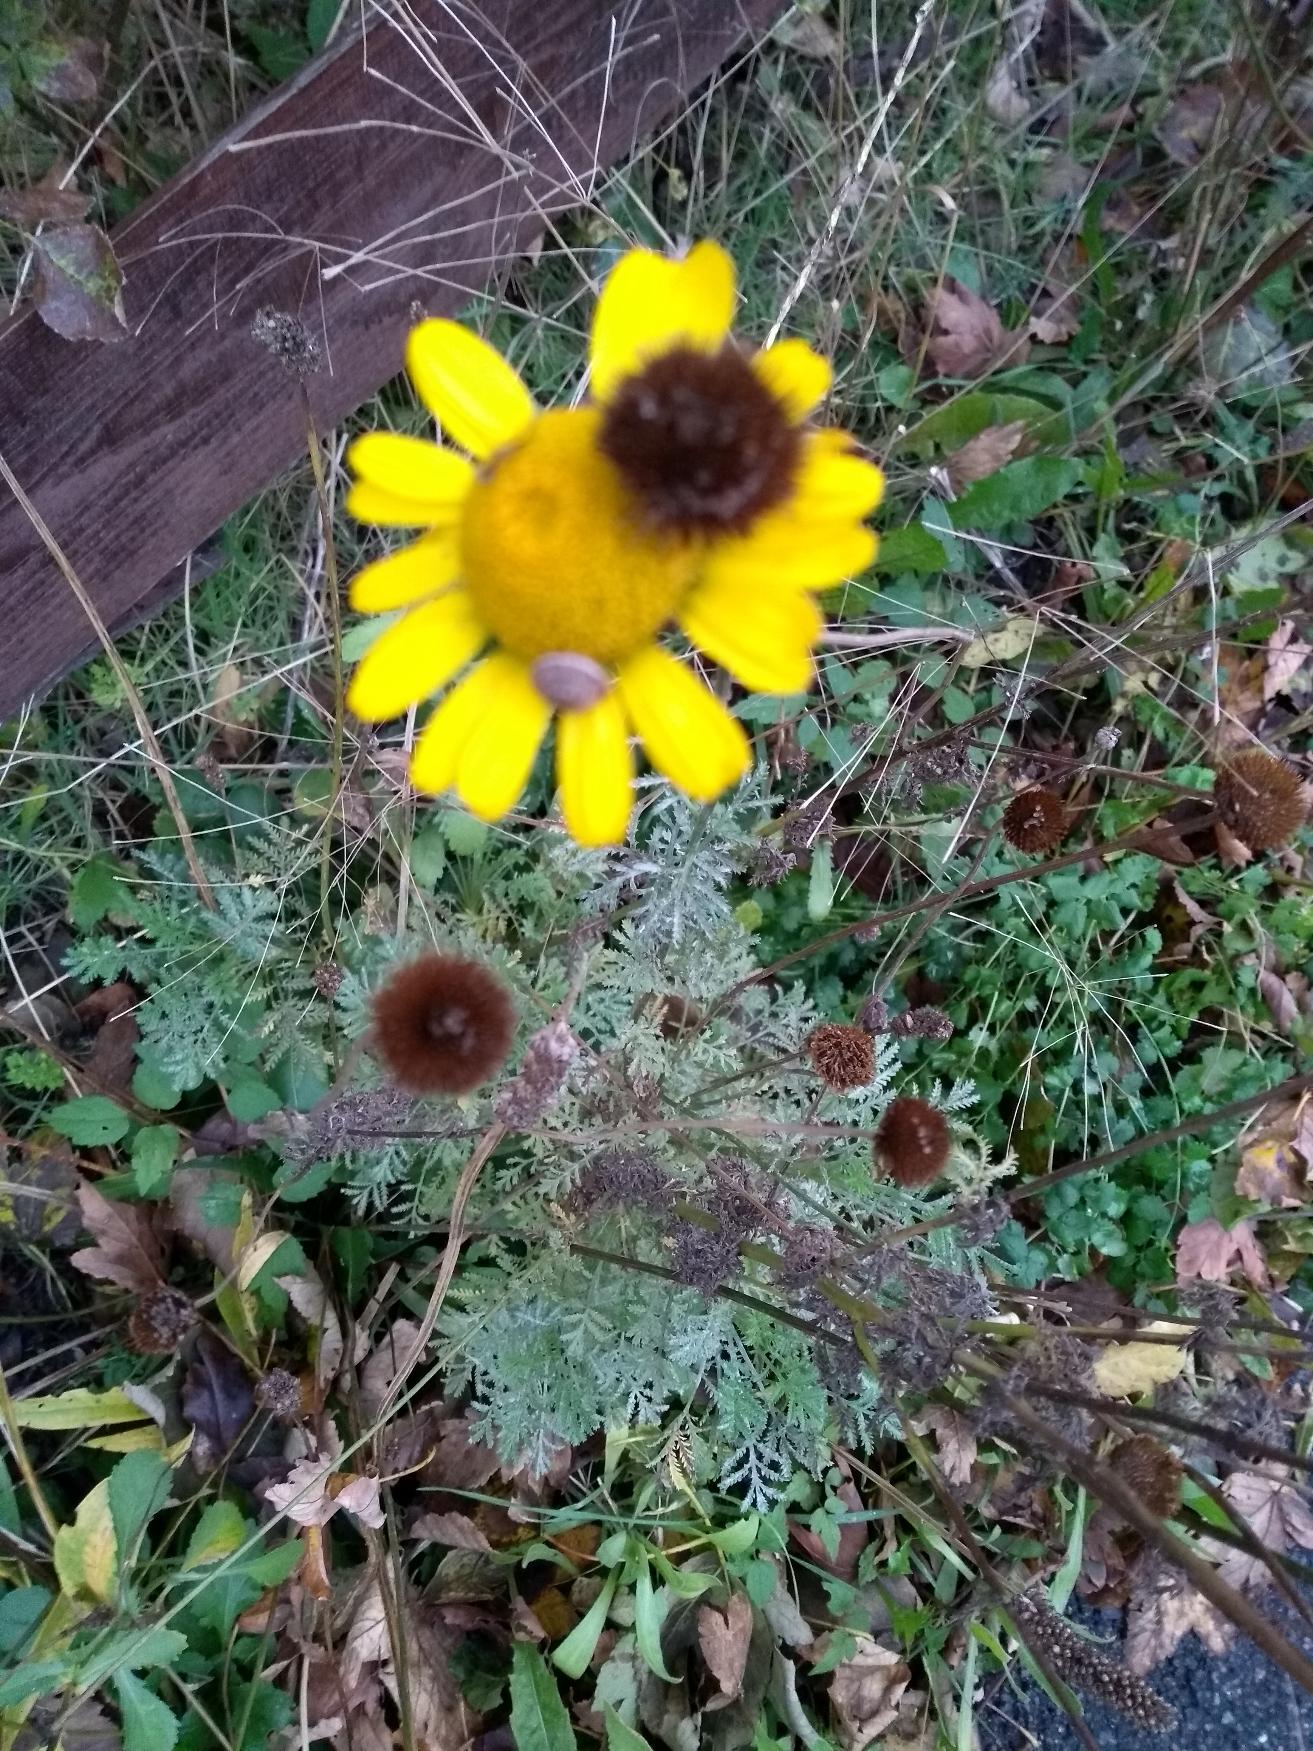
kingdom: Plantae
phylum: Tracheophyta
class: Magnoliopsida
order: Asterales
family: Asteraceae
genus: Cota
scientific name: Cota tinctoria
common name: Farve-gåseurt
